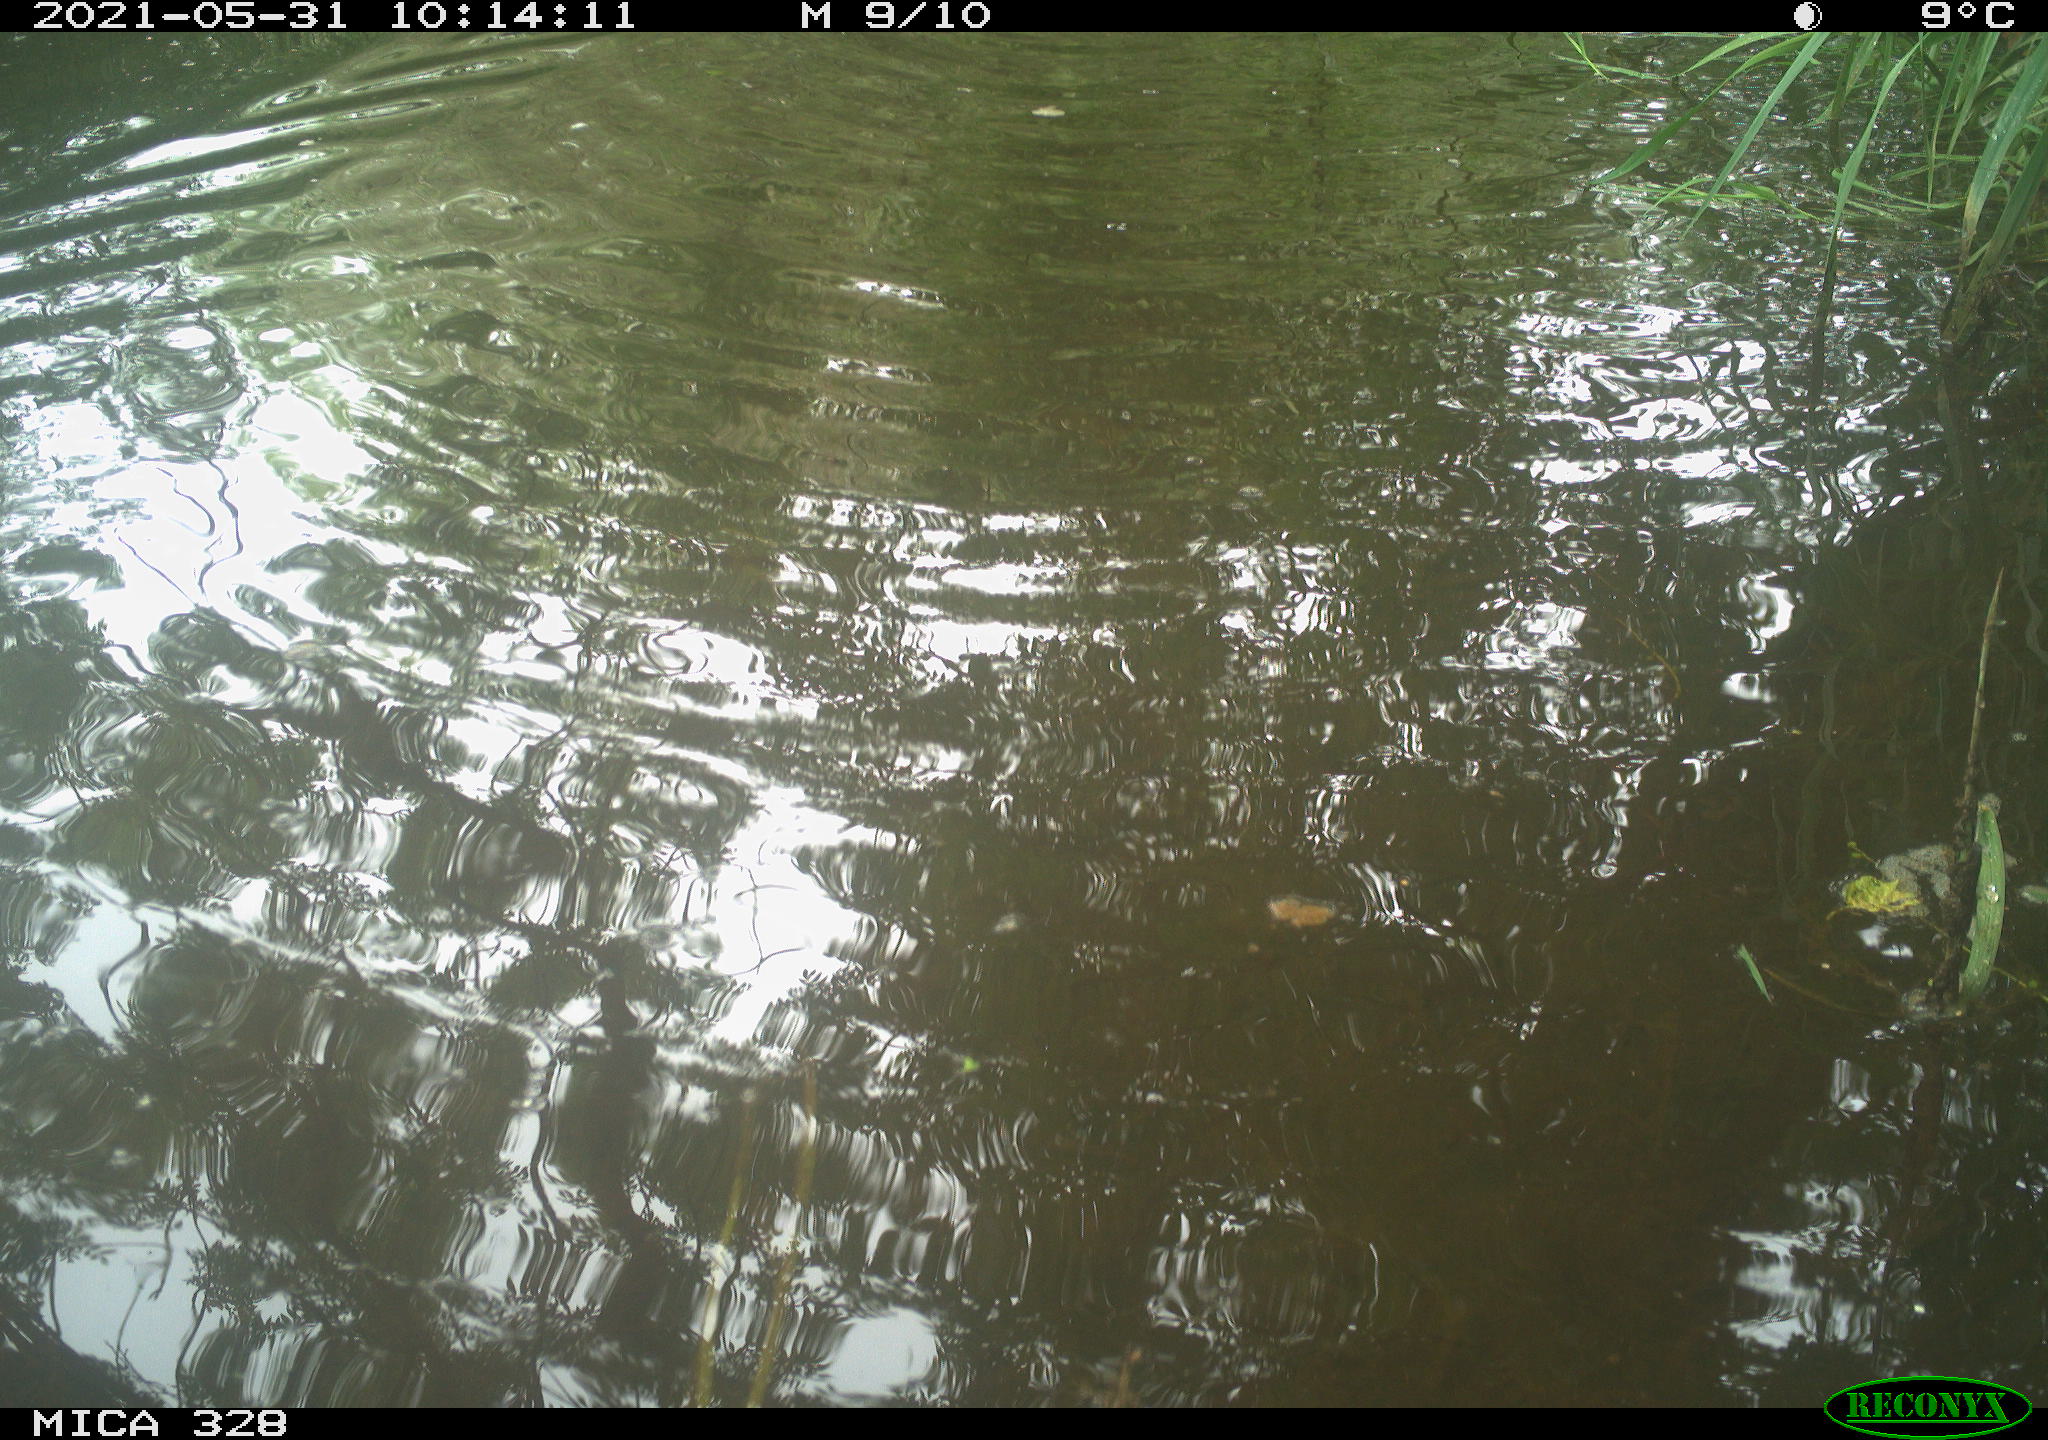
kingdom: Animalia
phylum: Chordata
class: Mammalia
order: Rodentia
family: Cricetidae
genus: Ondatra
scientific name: Ondatra zibethicus
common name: Muskrat
